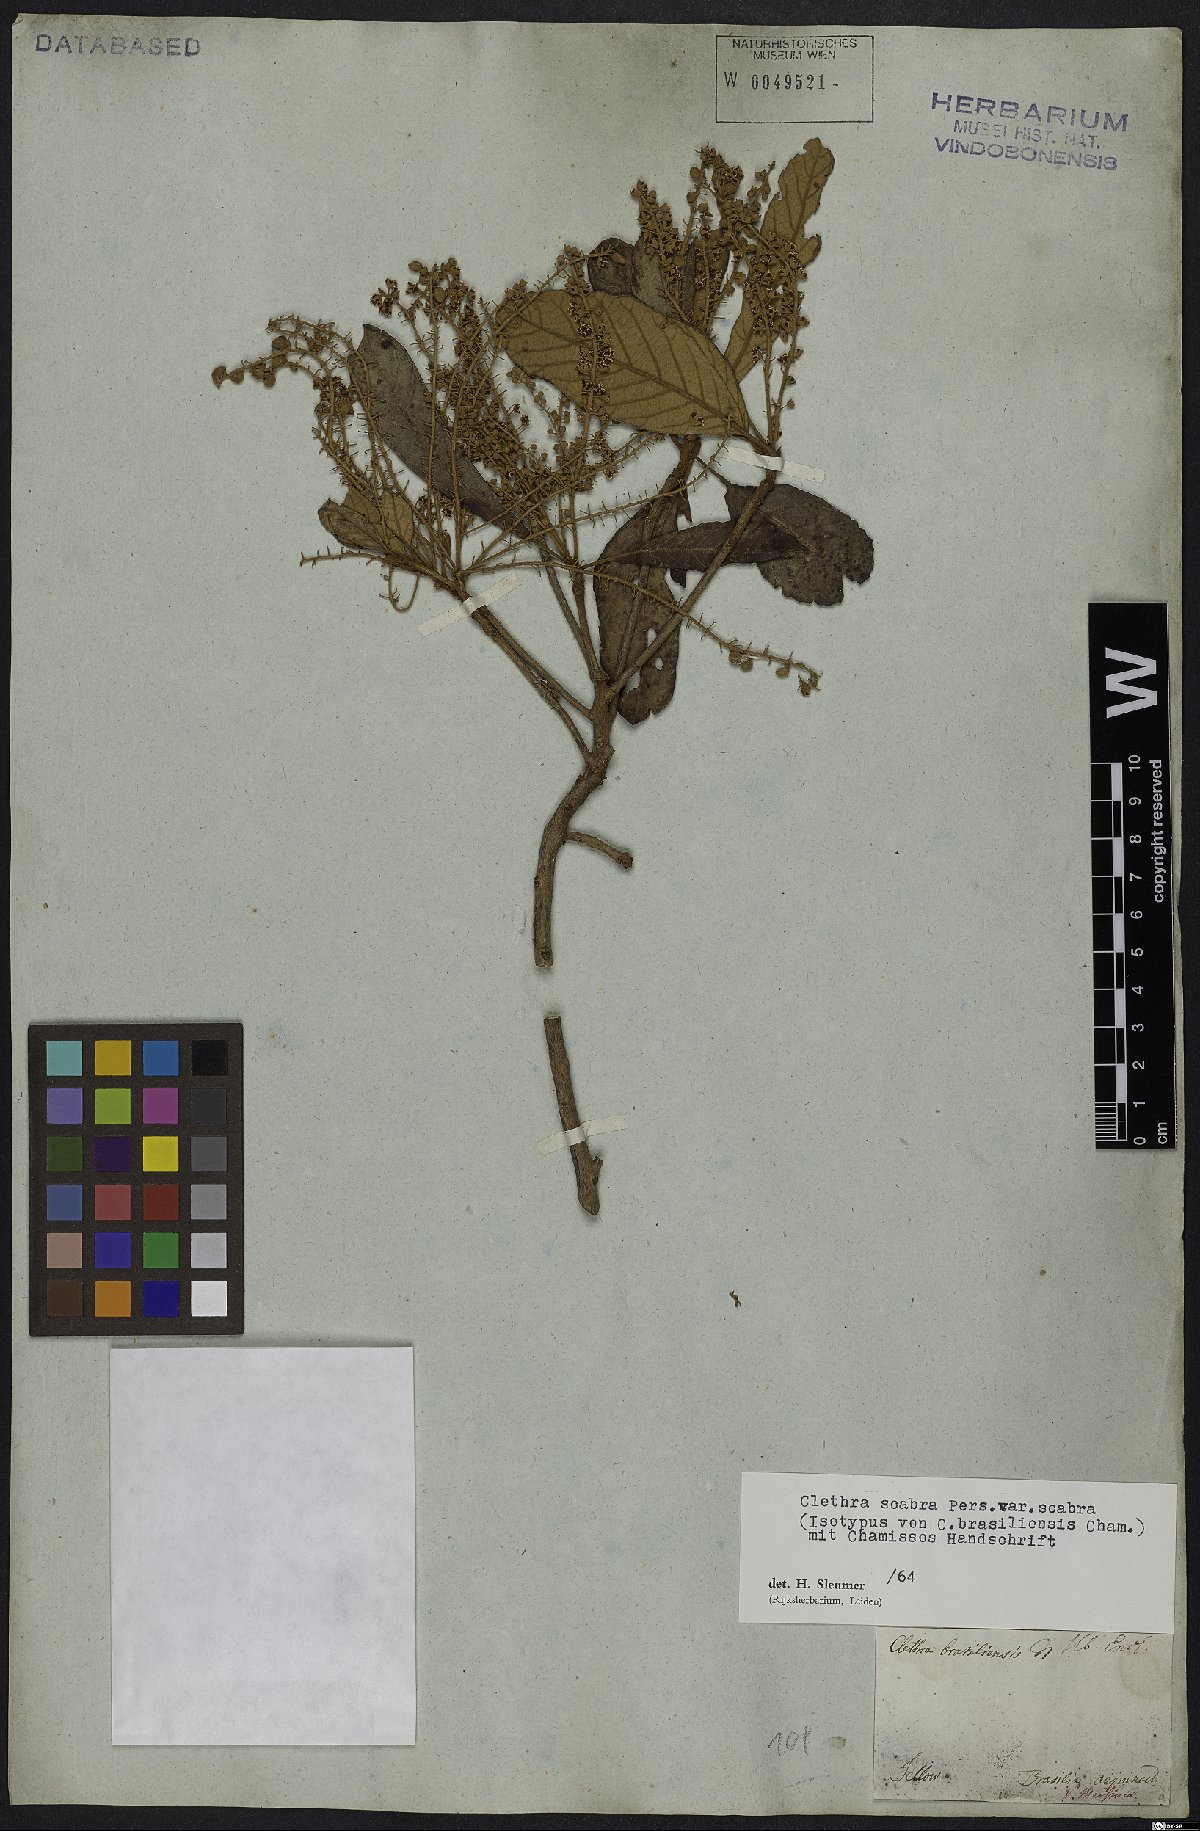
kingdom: Plantae
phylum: Tracheophyta
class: Magnoliopsida
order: Ericales
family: Clethraceae
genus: Clethra
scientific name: Clethra scabra
